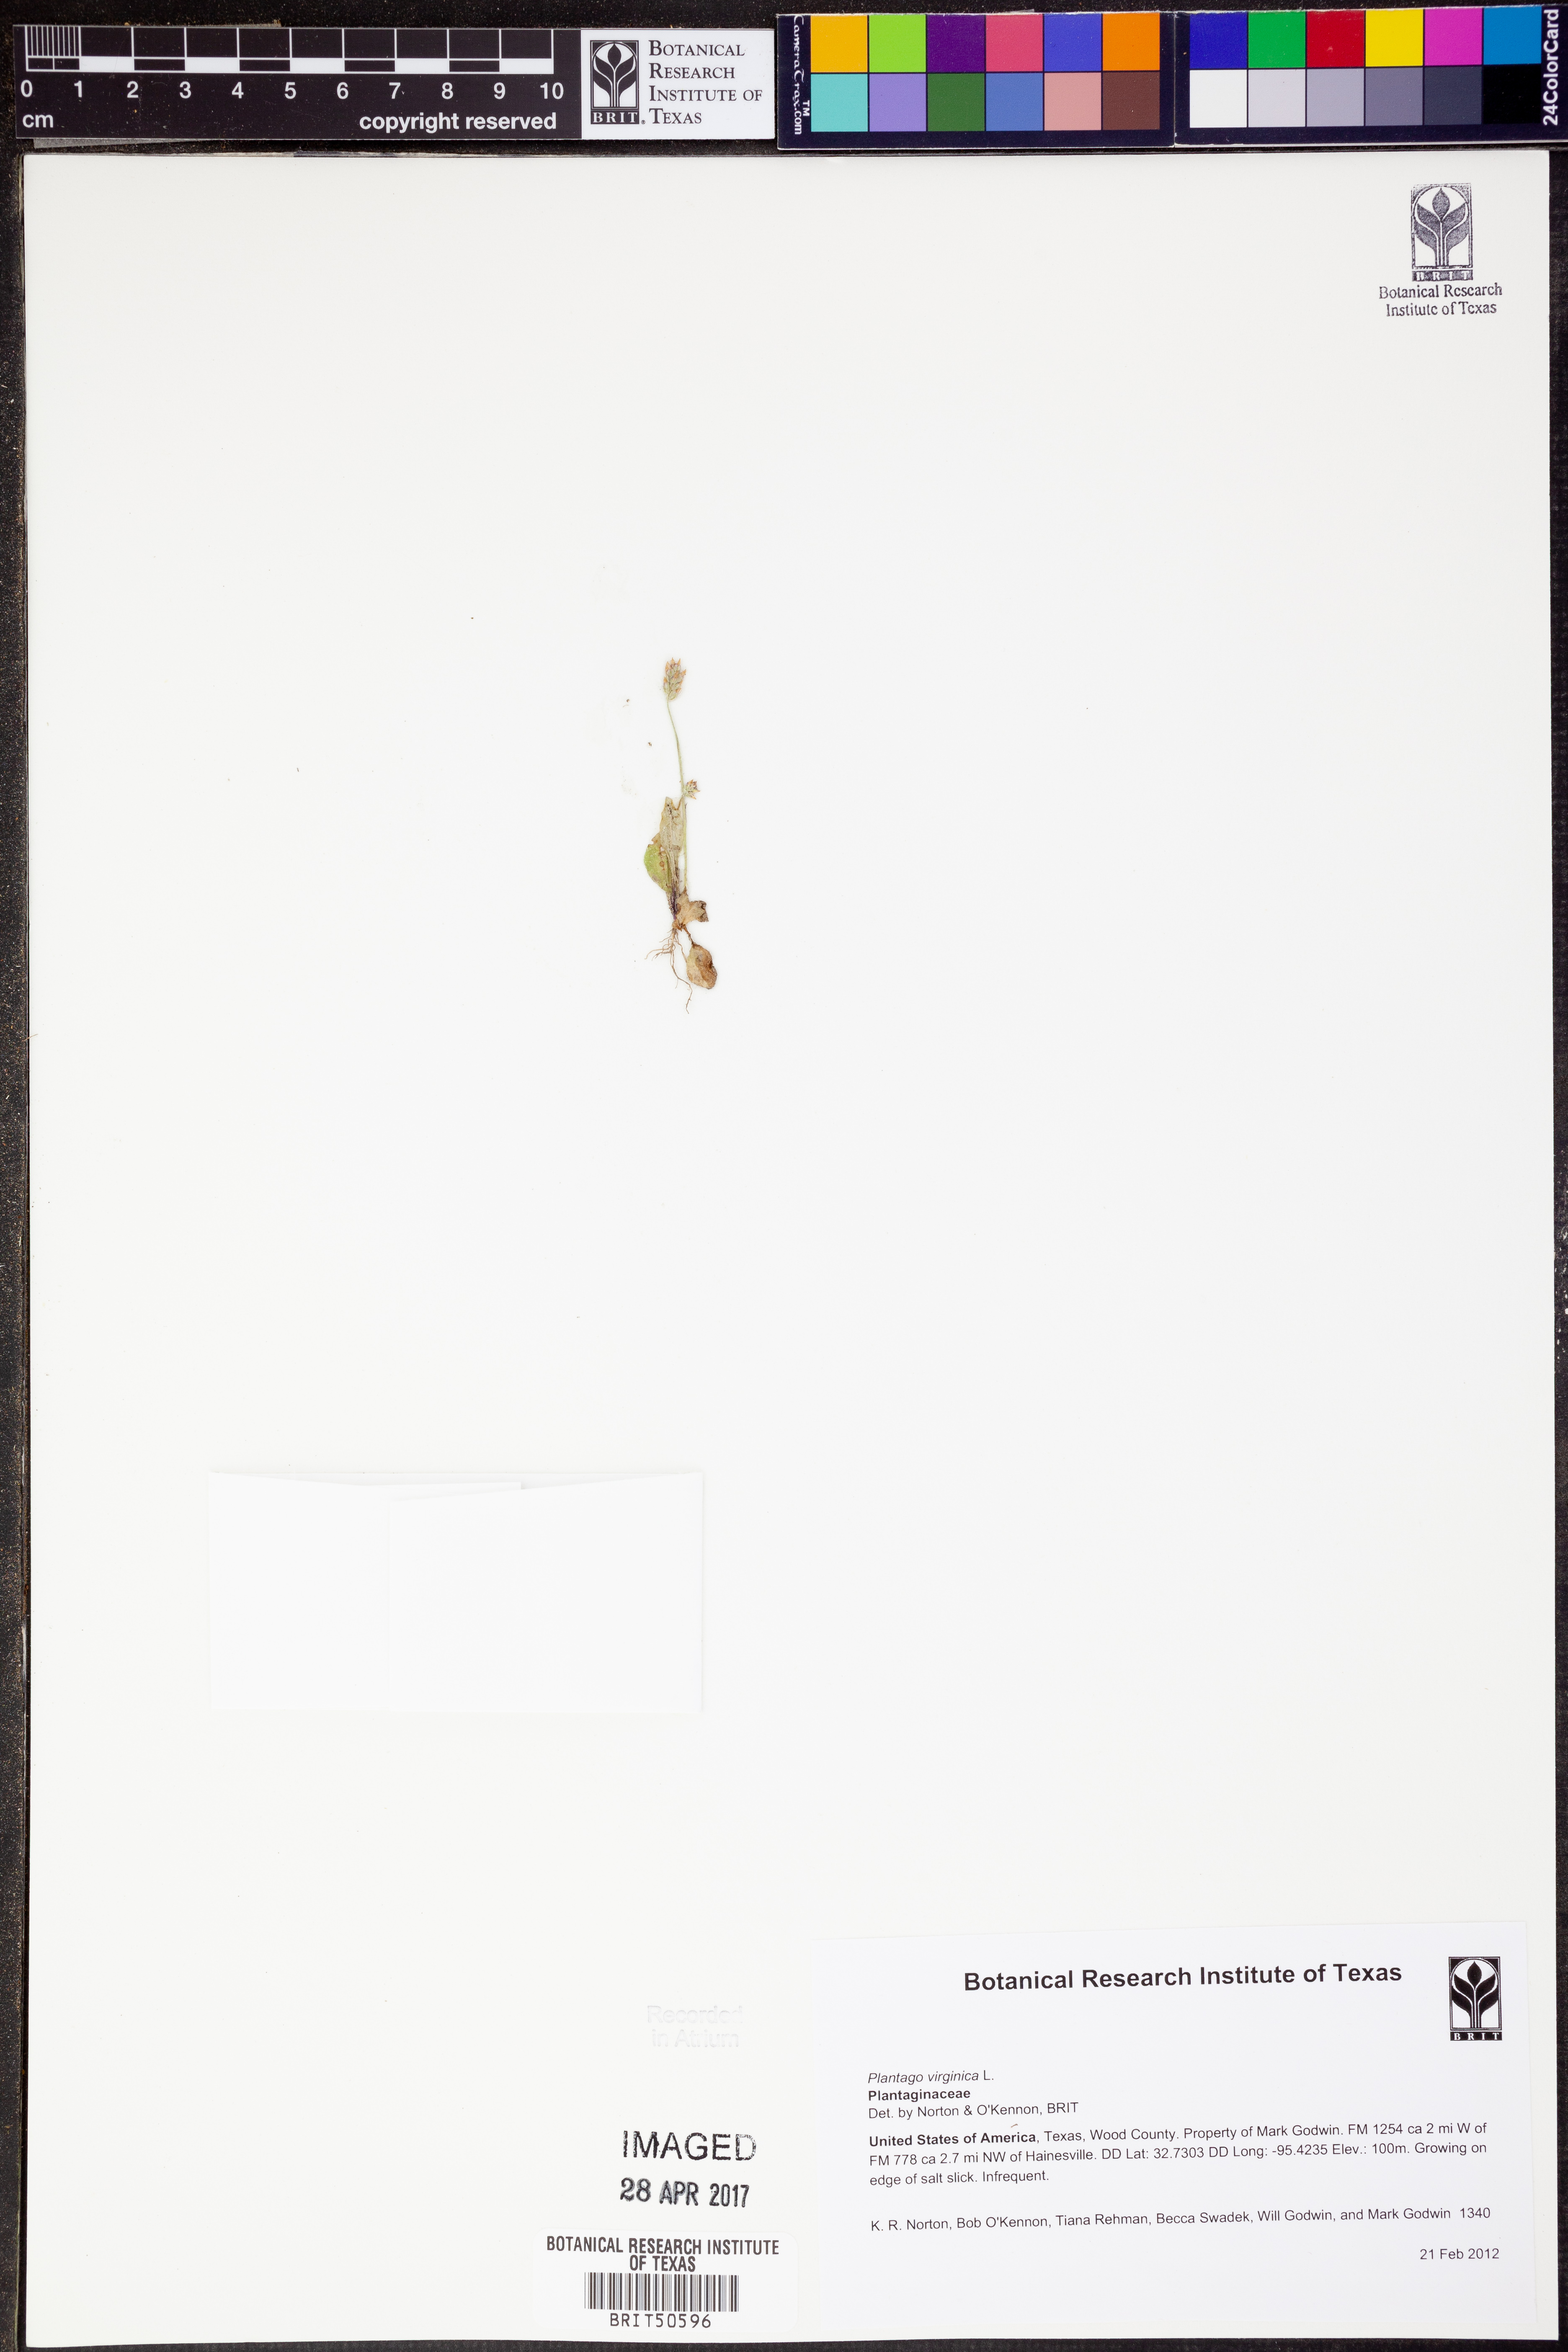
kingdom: Plantae
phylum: Tracheophyta
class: Magnoliopsida
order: Lamiales
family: Plantaginaceae
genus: Plantago
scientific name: Plantago virginica
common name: Hoary plantain
